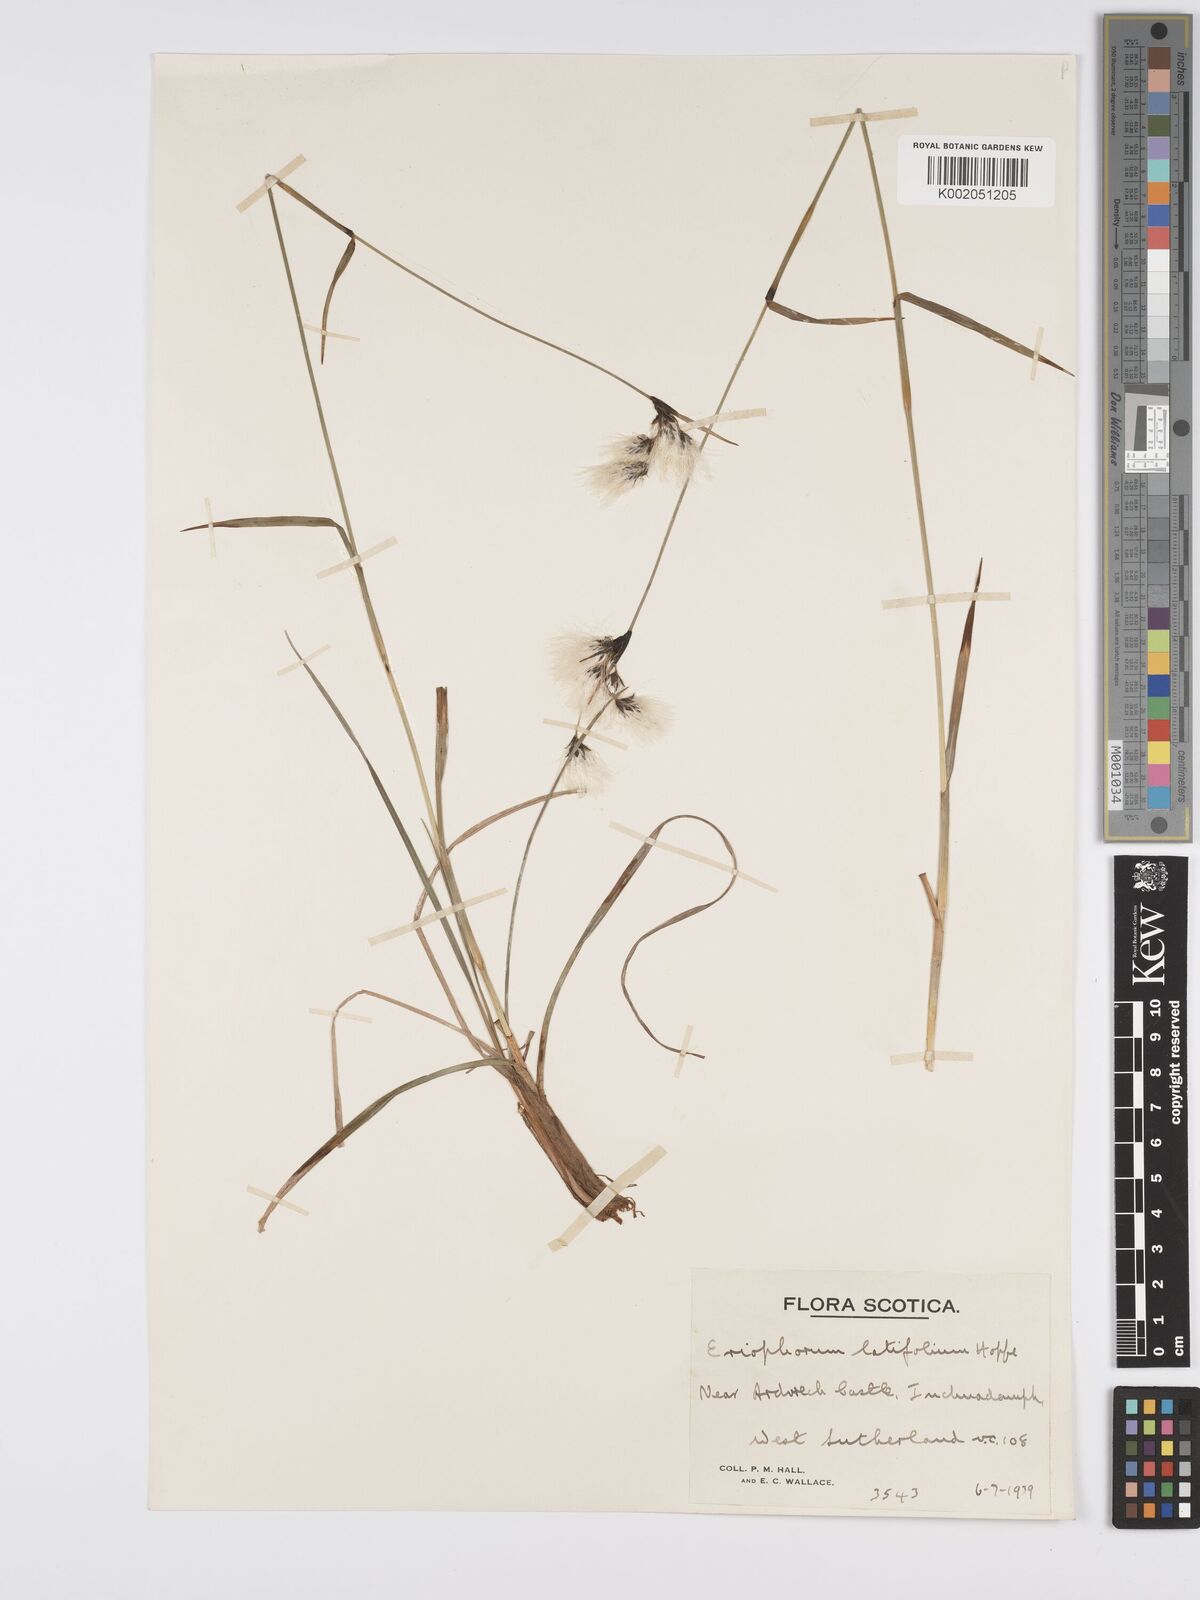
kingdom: Plantae
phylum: Tracheophyta
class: Liliopsida
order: Poales
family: Cyperaceae
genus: Eriophorum
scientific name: Eriophorum latifolium
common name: Broad-leaved cottongrass
